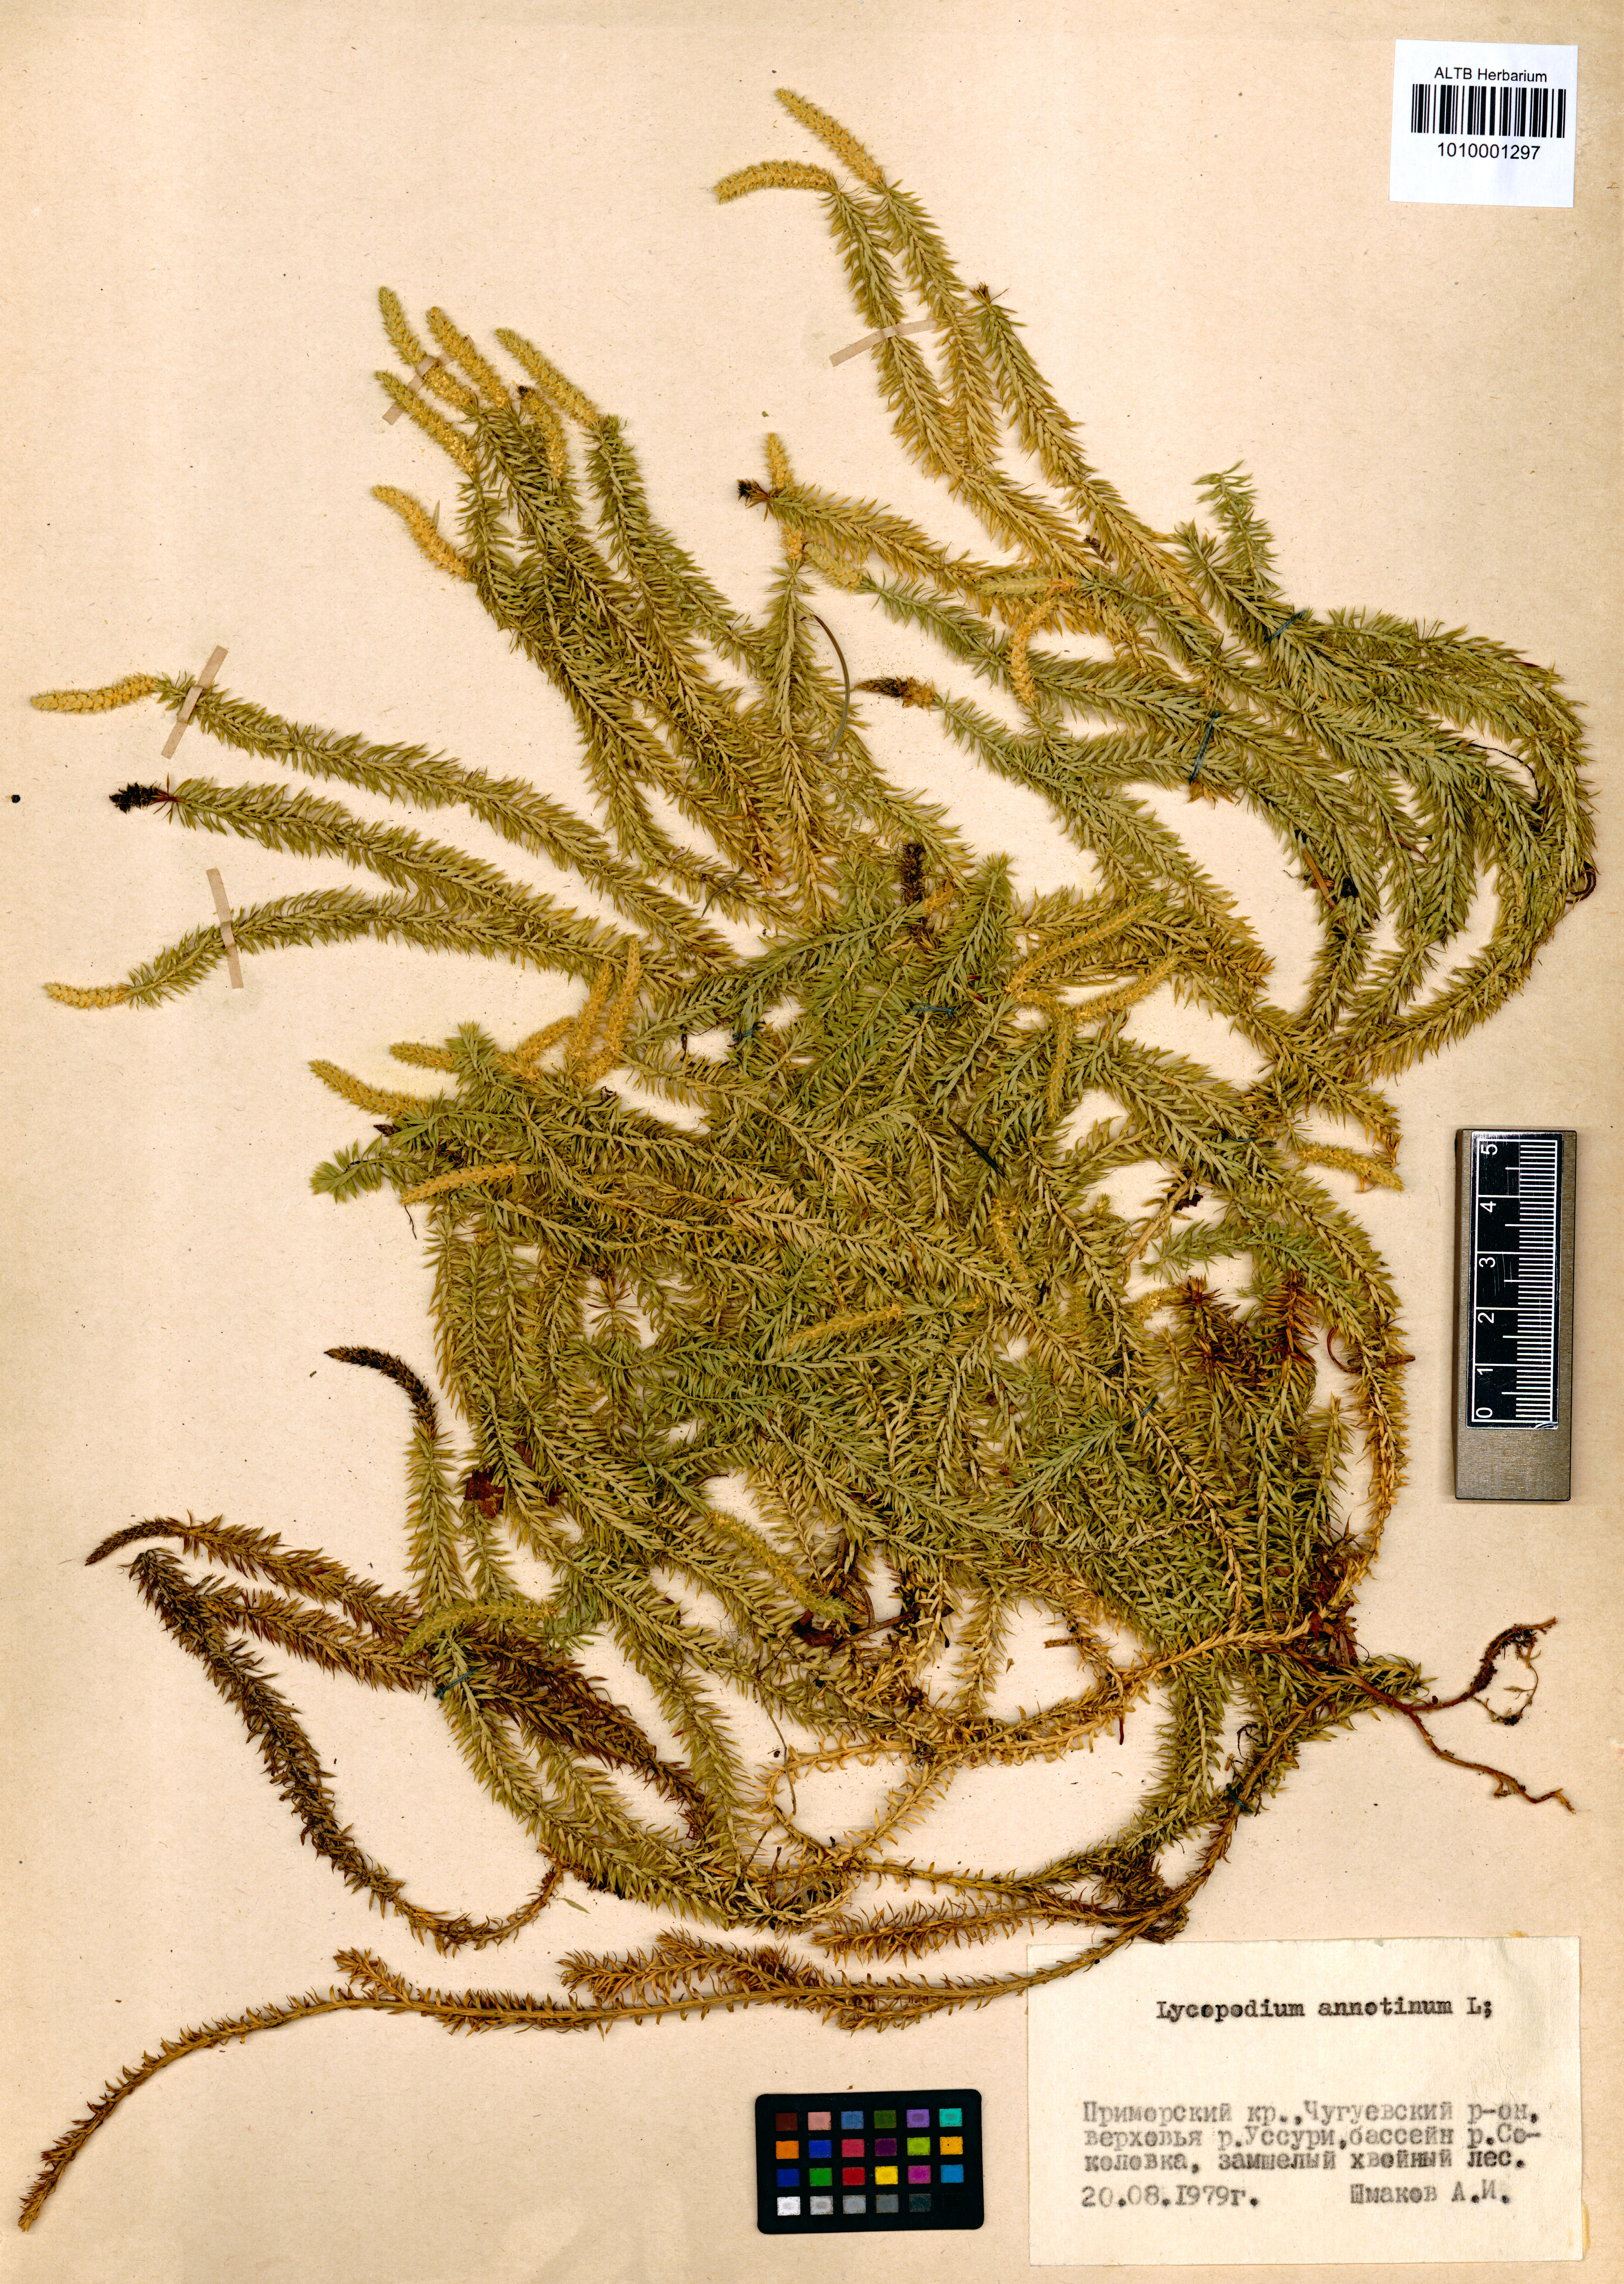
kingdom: Plantae
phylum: Tracheophyta
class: Lycopodiopsida
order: Lycopodiales
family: Lycopodiaceae
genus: Spinulum
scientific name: Spinulum annotinum
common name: Interrupted club-moss
